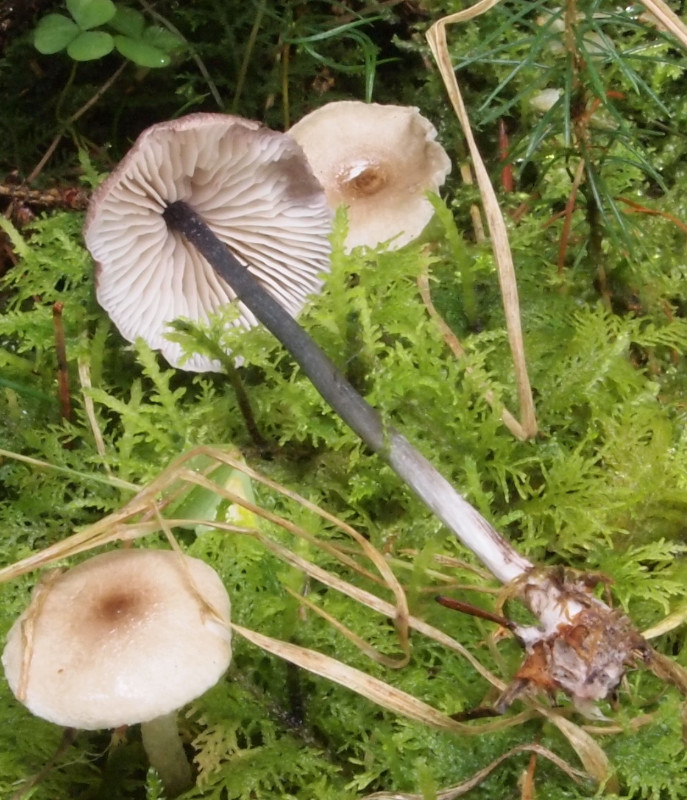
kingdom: Fungi
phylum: Basidiomycota
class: Agaricomycetes
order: Agaricales
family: Entolomataceae
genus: Entoloma
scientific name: Entoloma lampropus
